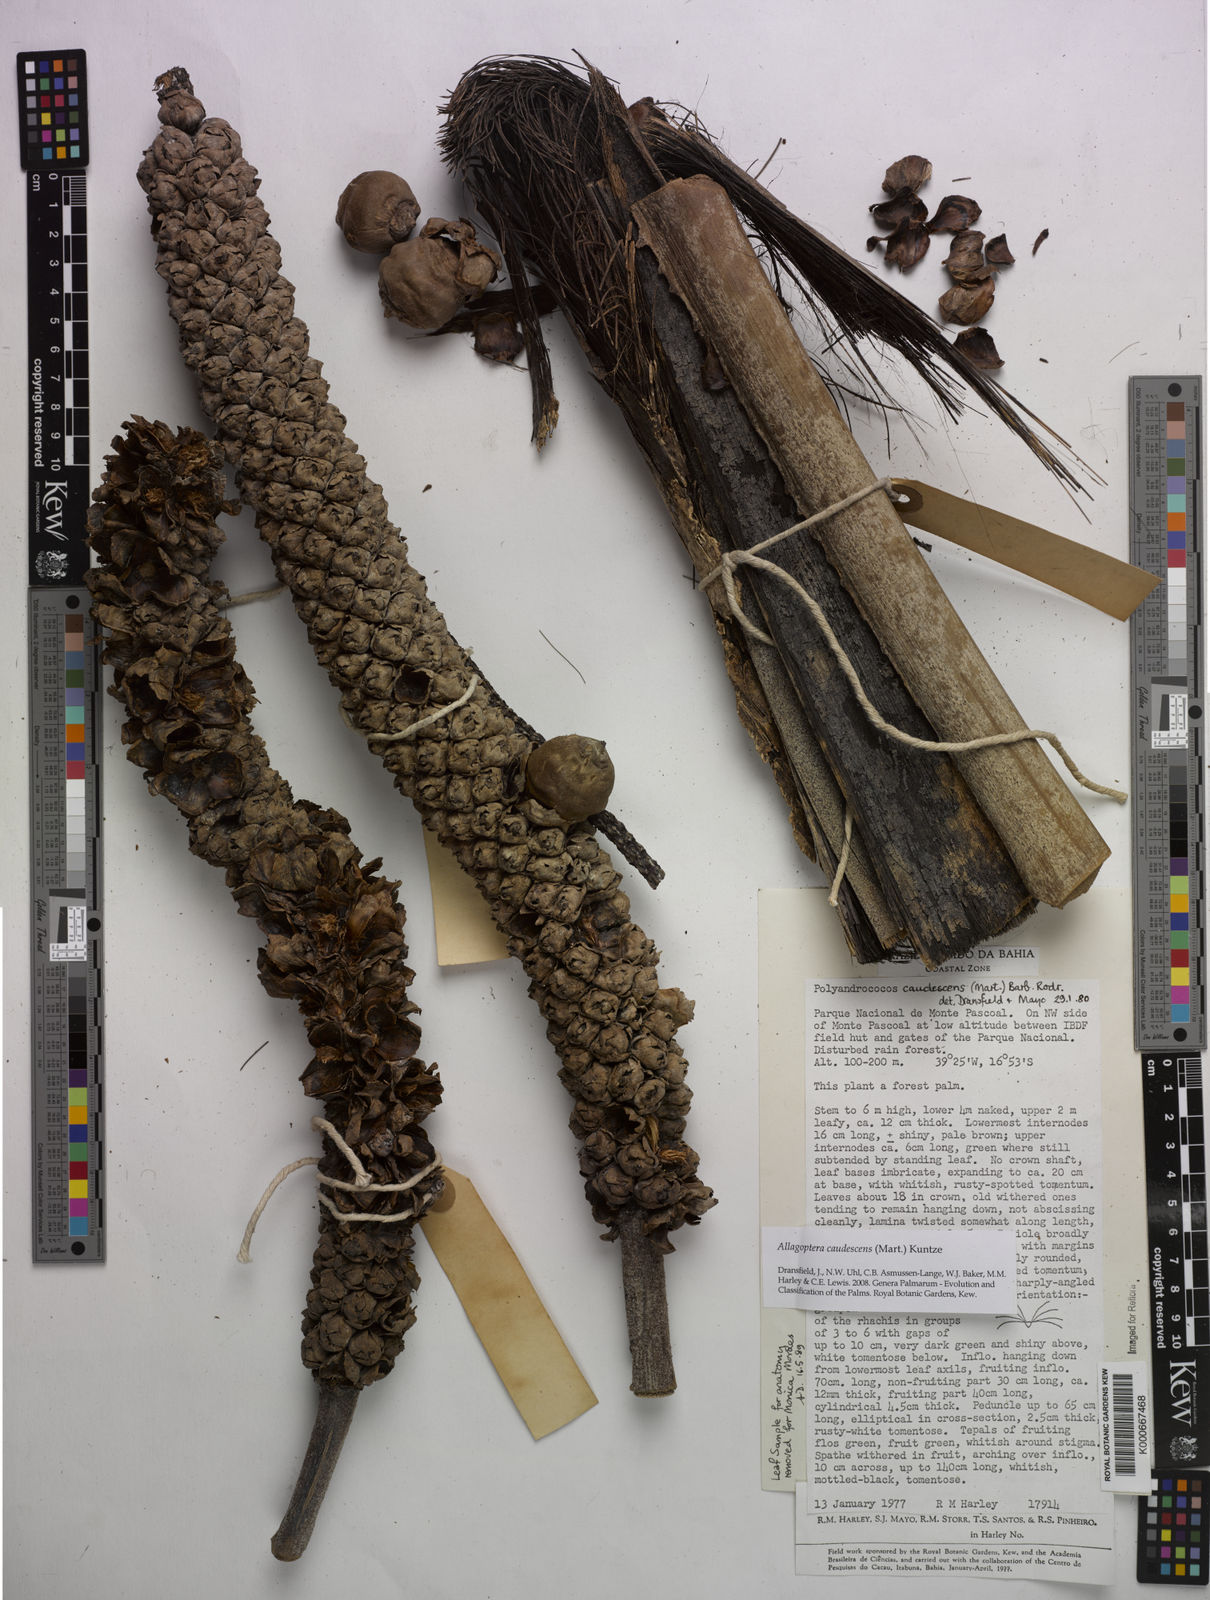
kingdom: Plantae
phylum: Tracheophyta
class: Liliopsida
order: Arecales
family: Arecaceae
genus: Allagoptera
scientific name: Allagoptera caudescens
